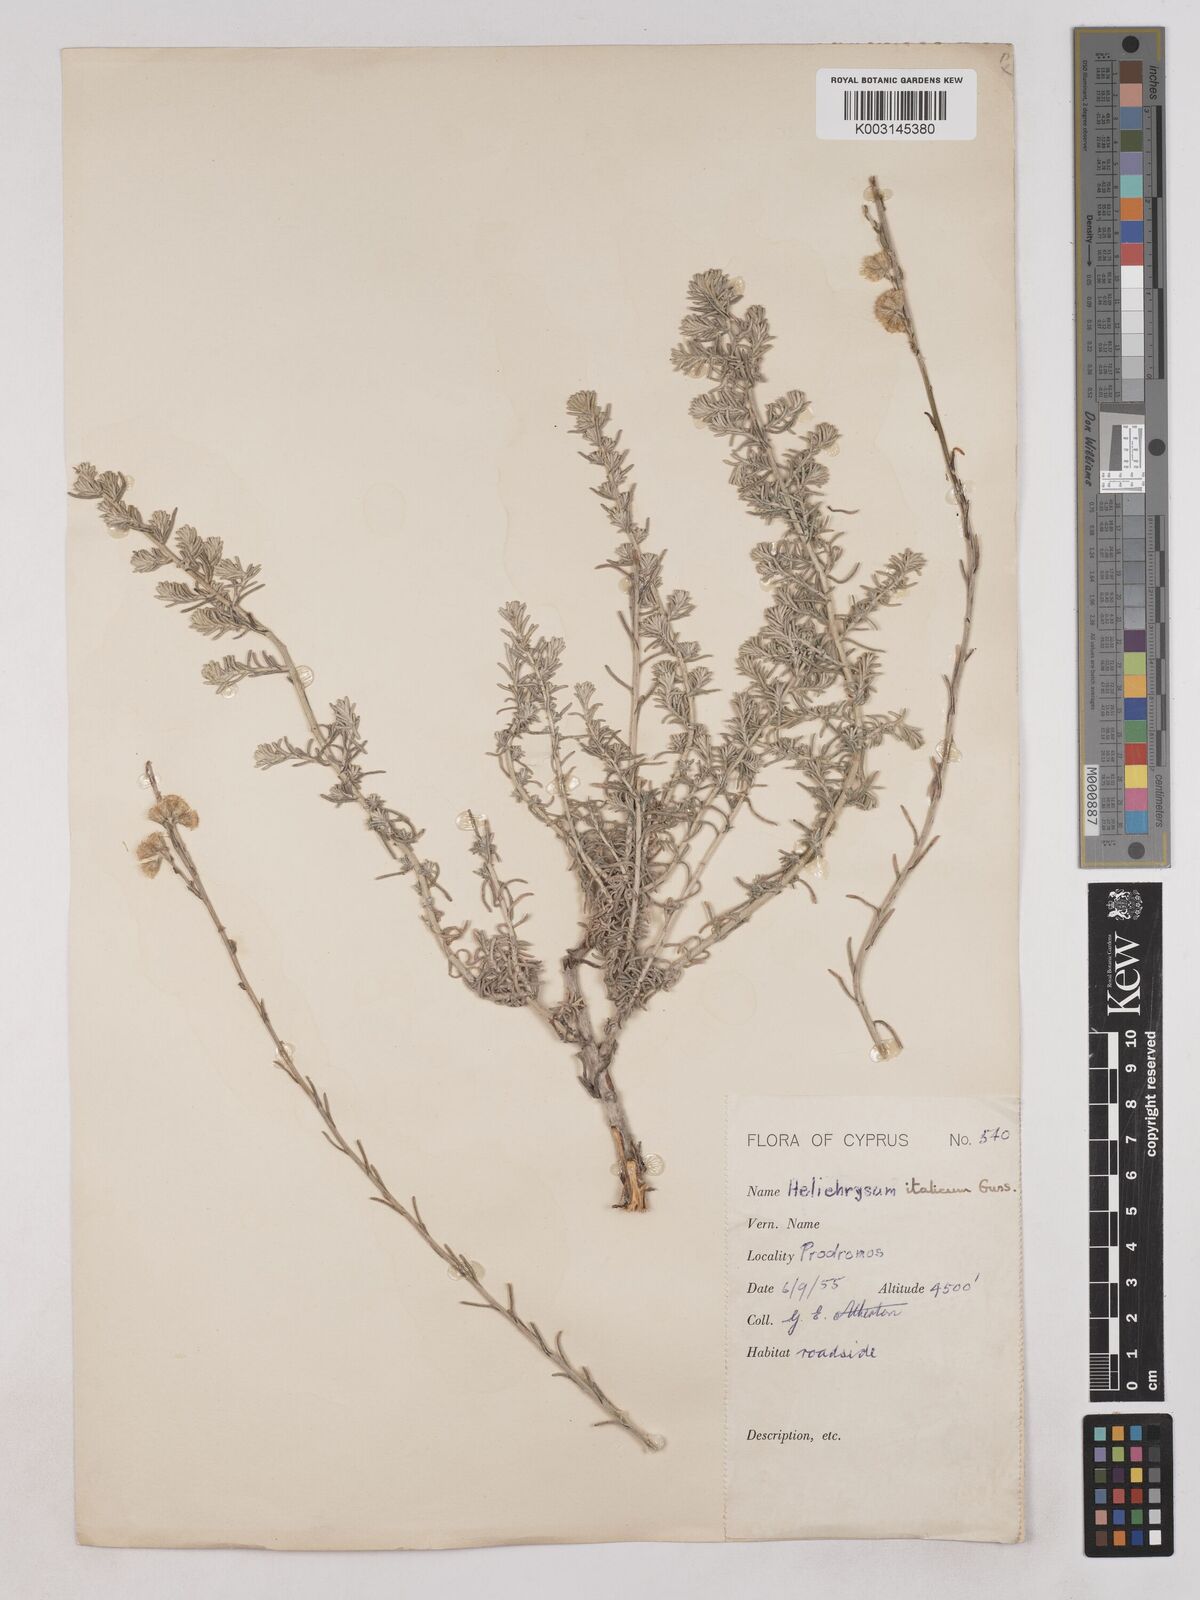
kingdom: Plantae
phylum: Tracheophyta
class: Magnoliopsida
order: Asterales
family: Asteraceae
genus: Helichrysum
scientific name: Helichrysum italicum
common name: Curryplant
